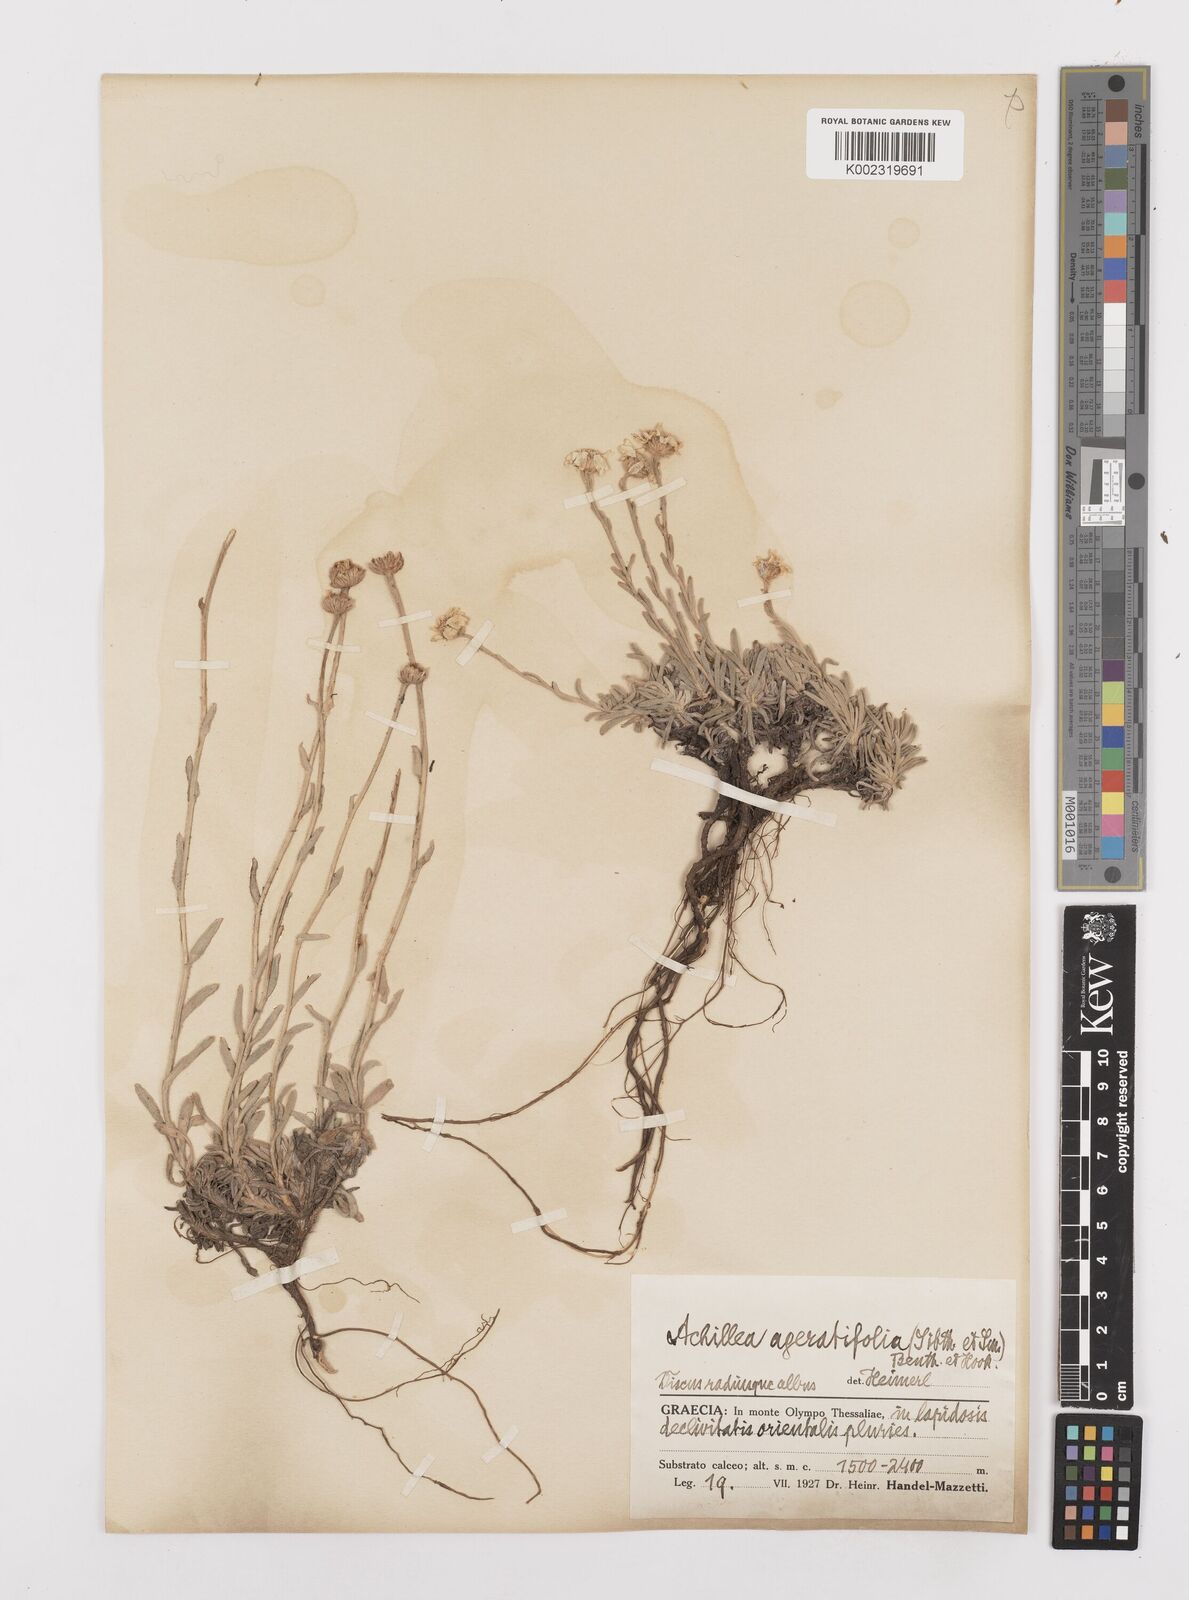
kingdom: Plantae
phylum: Tracheophyta
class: Magnoliopsida
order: Asterales
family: Asteraceae
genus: Achillea
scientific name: Achillea ageratifolia
